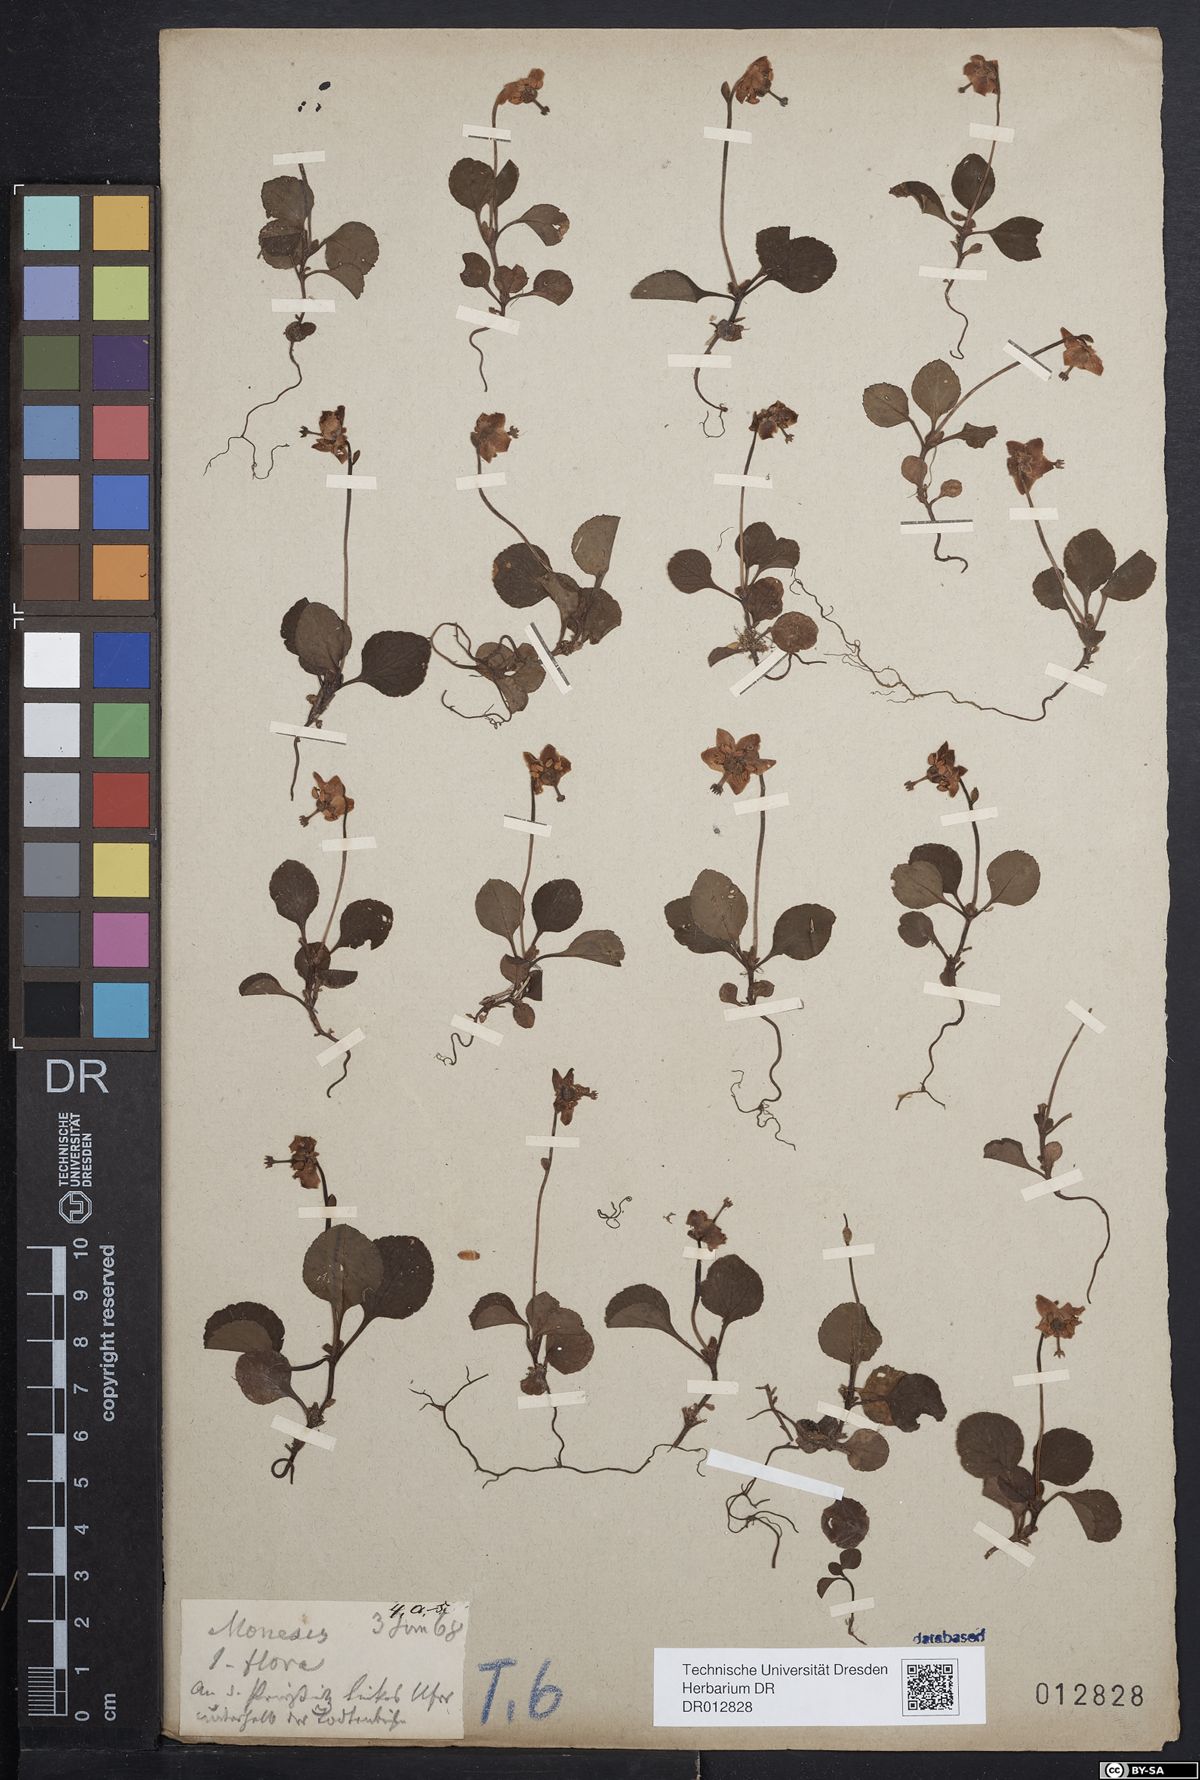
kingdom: Plantae
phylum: Tracheophyta
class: Magnoliopsida
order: Ericales
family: Ericaceae
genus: Moneses
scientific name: Moneses uniflora
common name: One-flowered wintergreen
